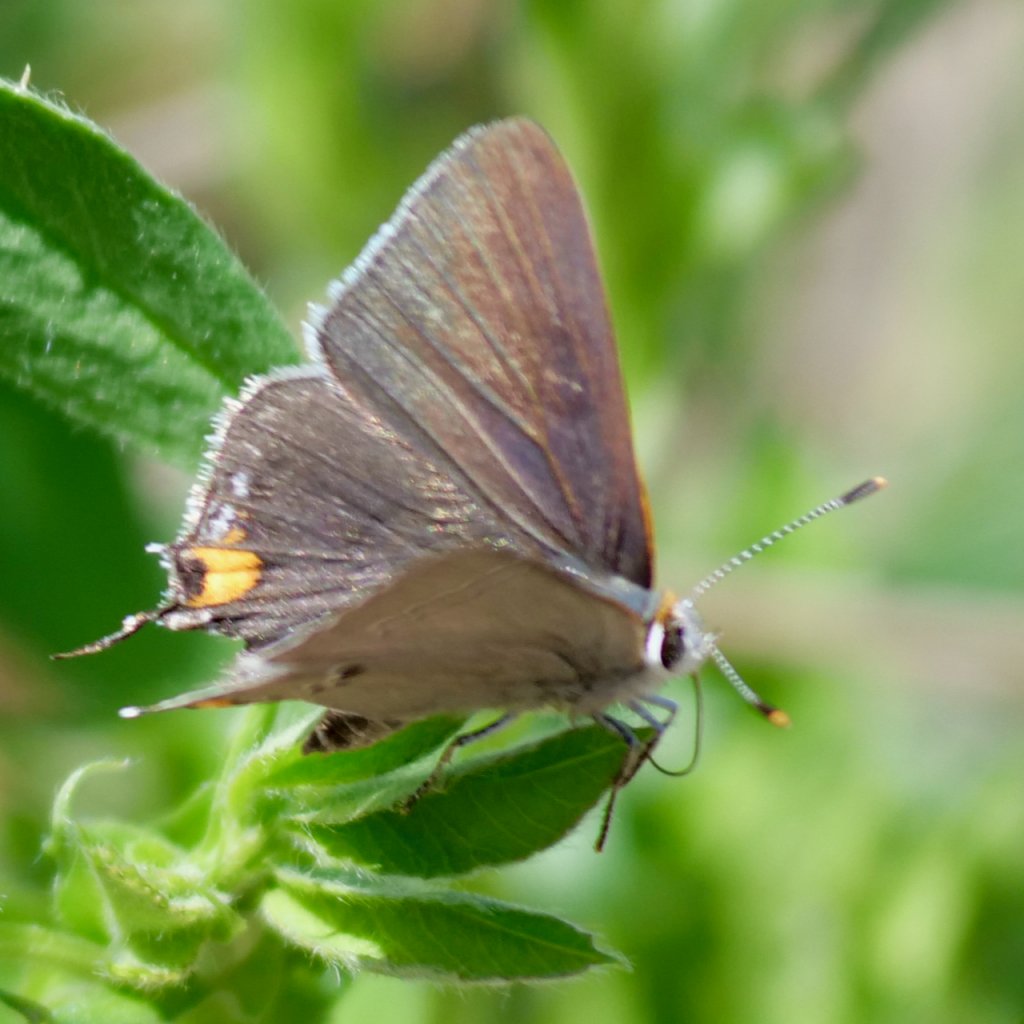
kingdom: Animalia
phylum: Arthropoda
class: Insecta
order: Lepidoptera
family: Lycaenidae
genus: Strymon
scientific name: Strymon melinus
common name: Gray Hairstreak
